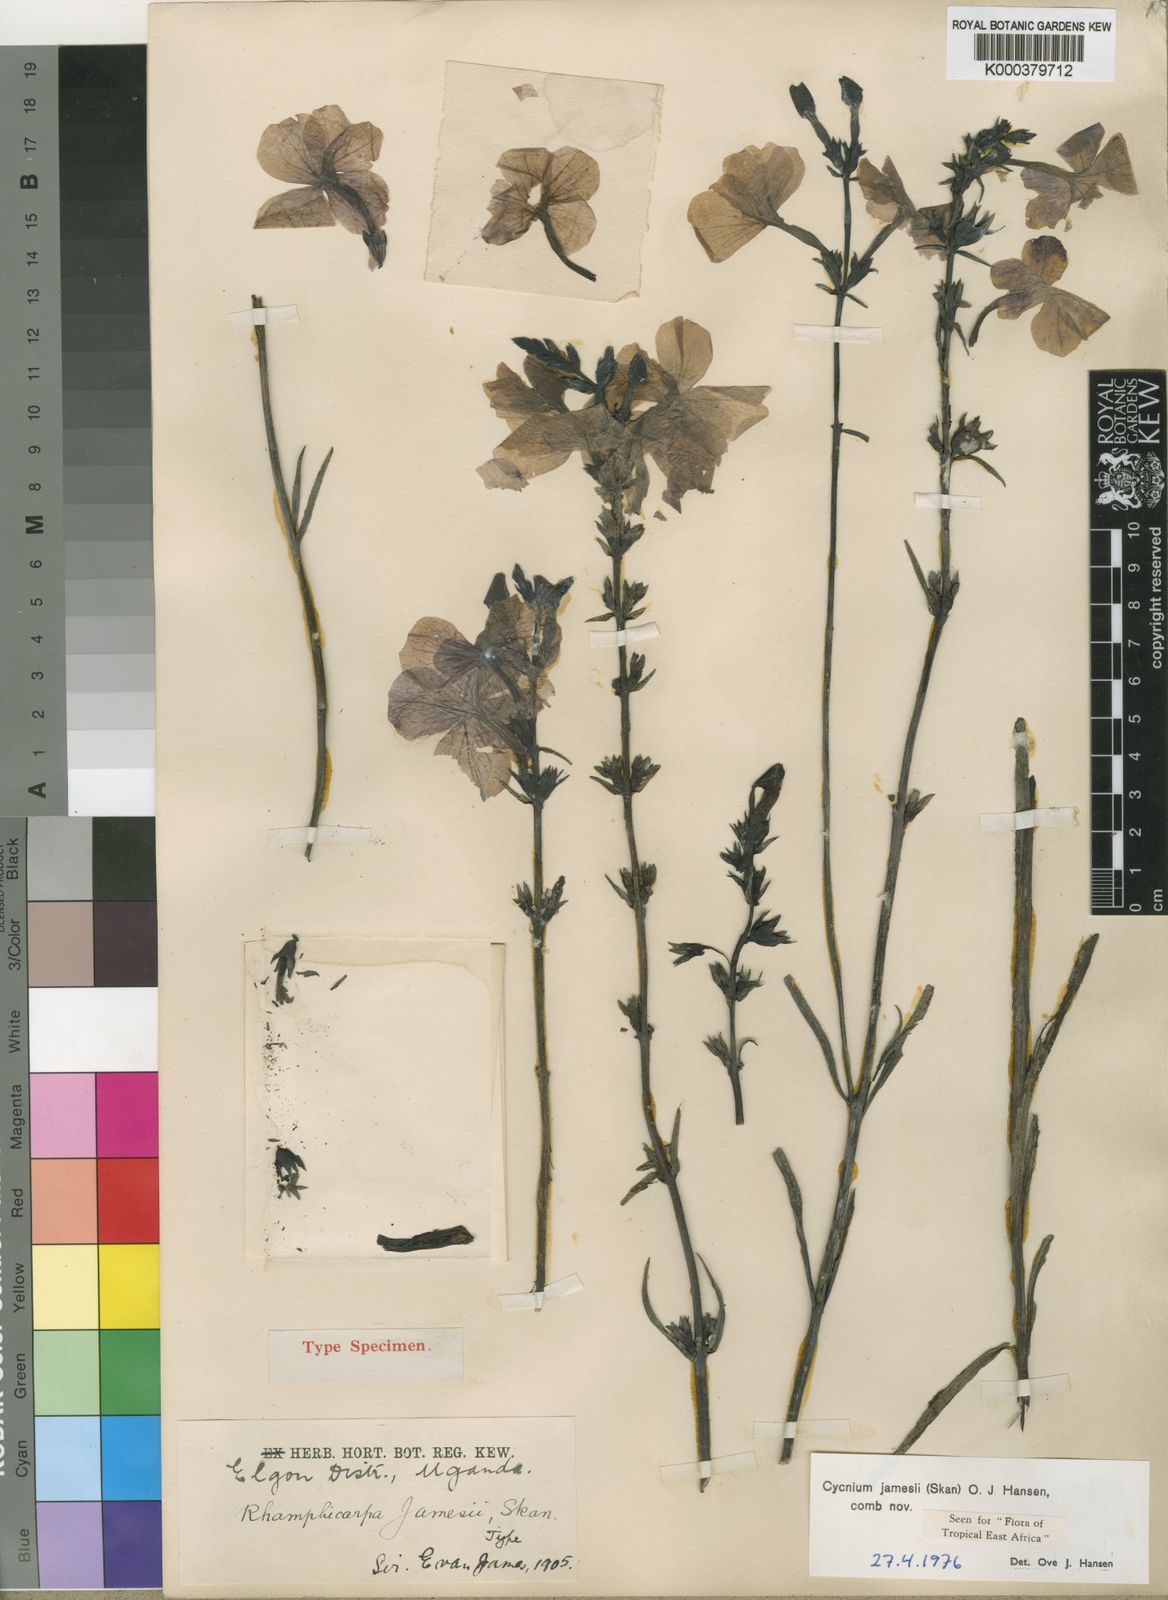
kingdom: Plantae
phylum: Tracheophyta
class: Magnoliopsida
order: Lamiales
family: Orobanchaceae
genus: Cycnium
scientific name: Cycnium jamesii
